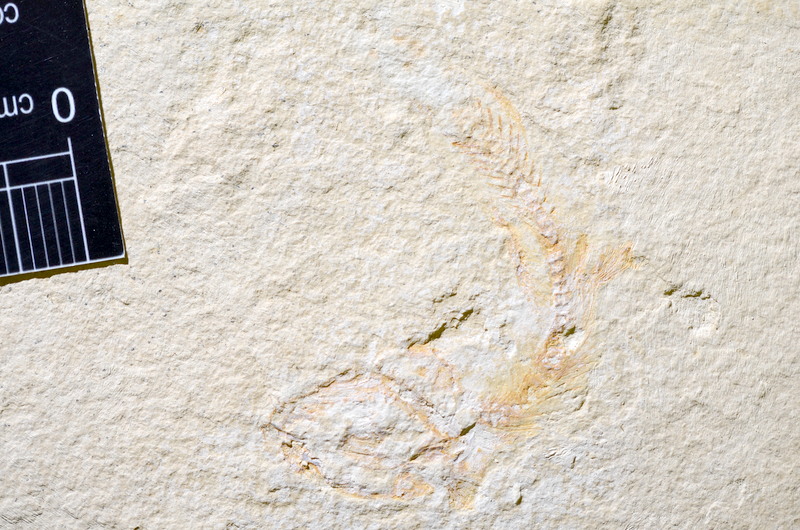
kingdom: Animalia
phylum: Chordata
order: Salmoniformes
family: Orthogonikleithridae
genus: Leptolepides
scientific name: Leptolepides
